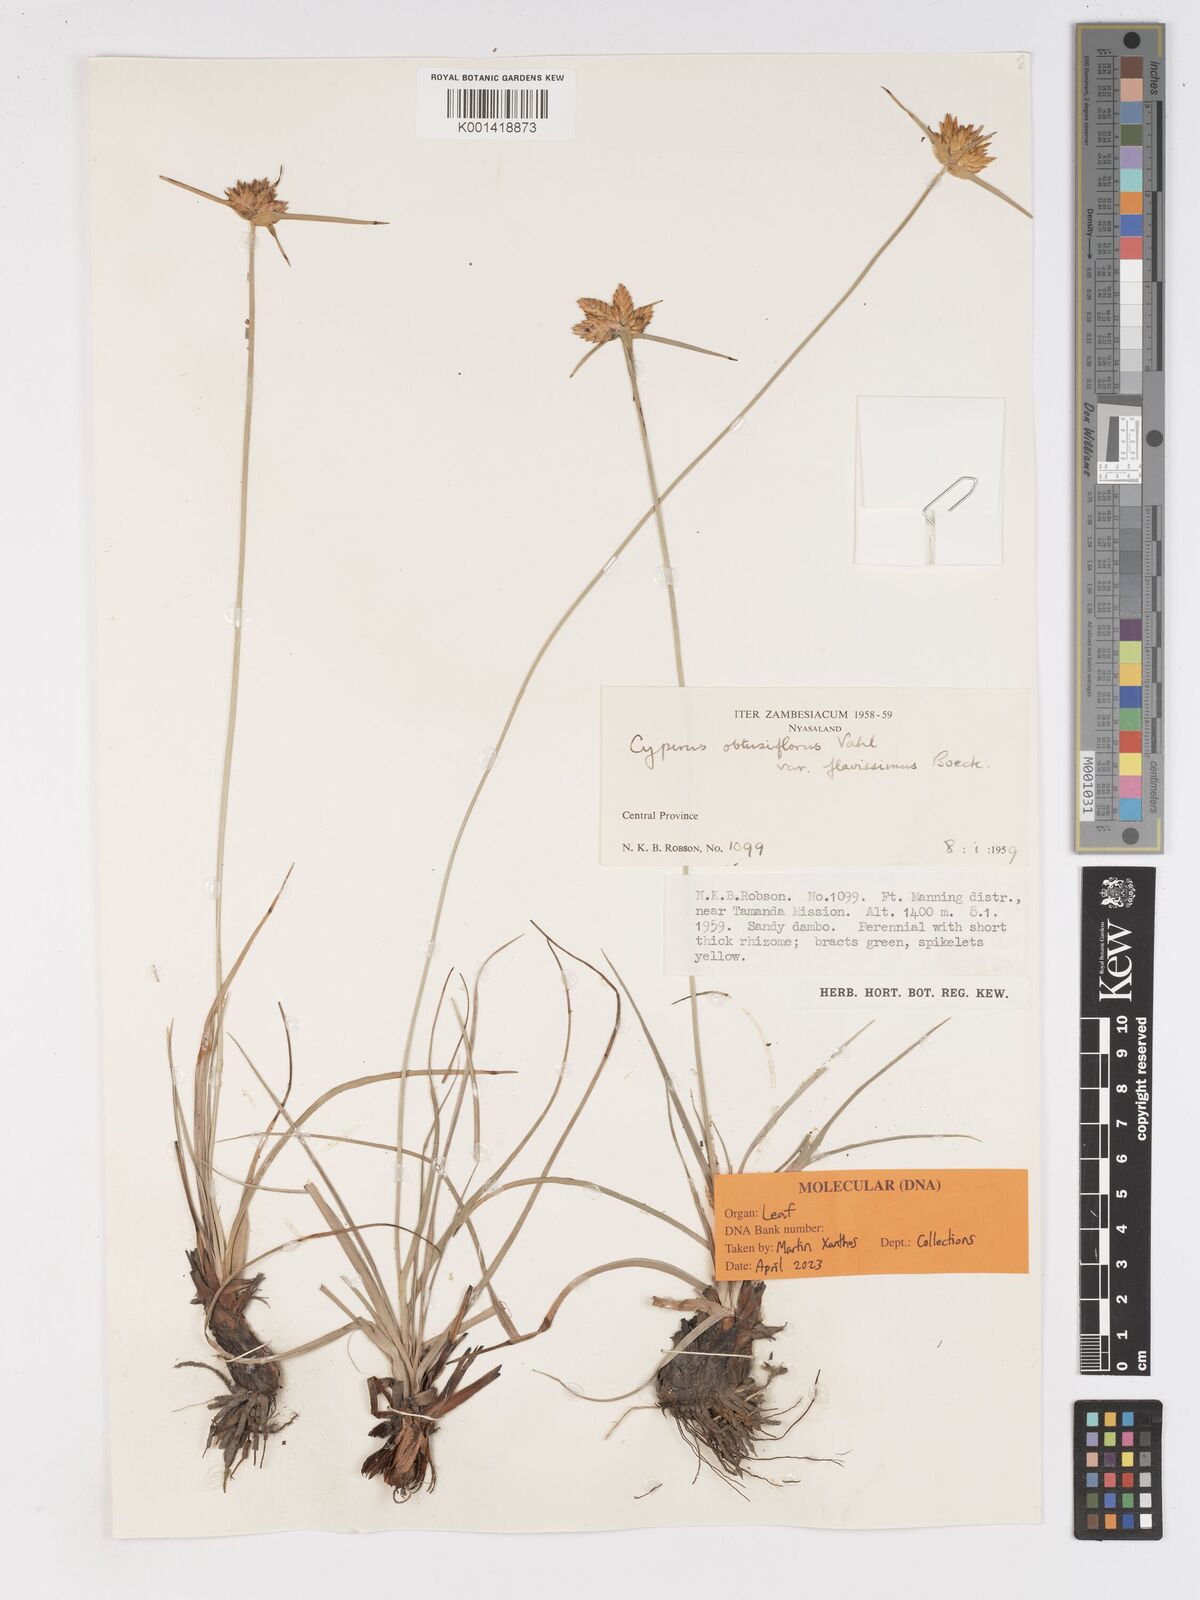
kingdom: Plantae
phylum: Tracheophyta
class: Liliopsida
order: Poales
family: Cyperaceae
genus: Cyperus
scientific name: Cyperus sphaerocephalus
